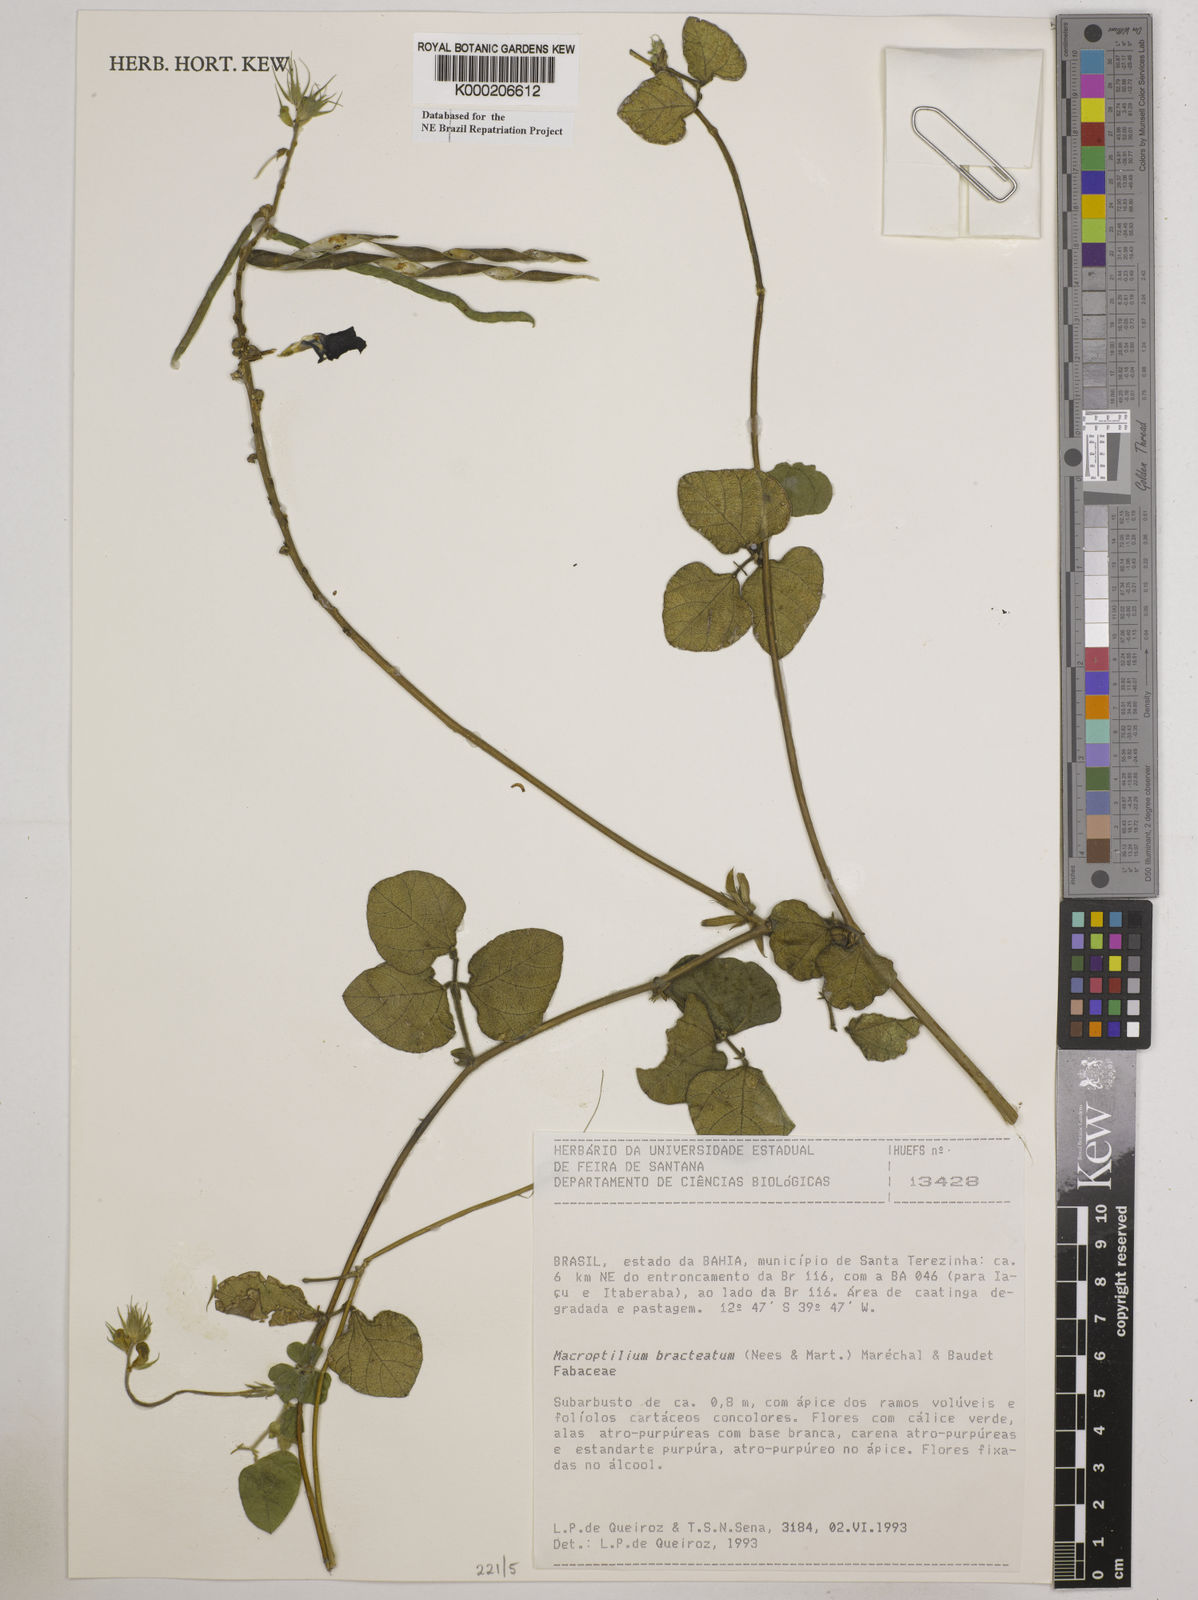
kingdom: Plantae
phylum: Tracheophyta
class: Magnoliopsida
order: Fabales
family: Fabaceae
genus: Macroptilium
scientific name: Macroptilium
